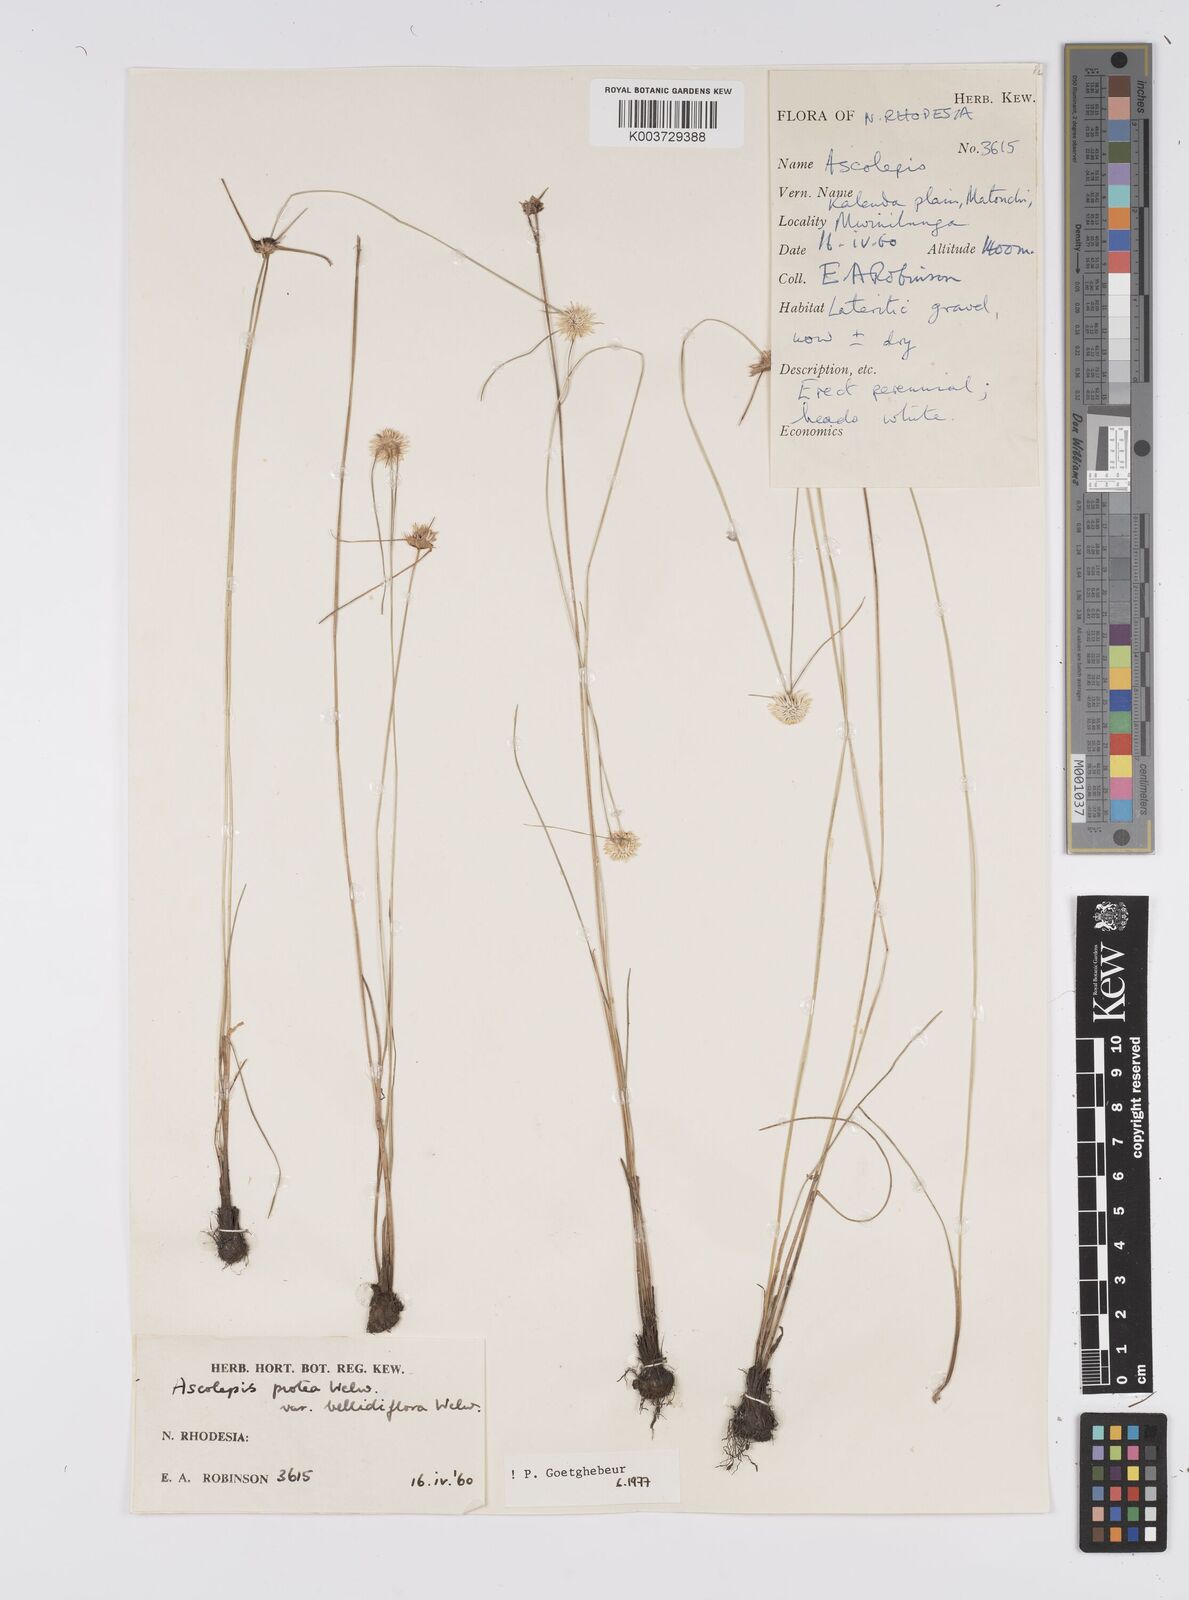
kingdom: Plantae
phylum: Tracheophyta
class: Liliopsida
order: Poales
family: Cyperaceae
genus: Cyperus
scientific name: Cyperus proteus
